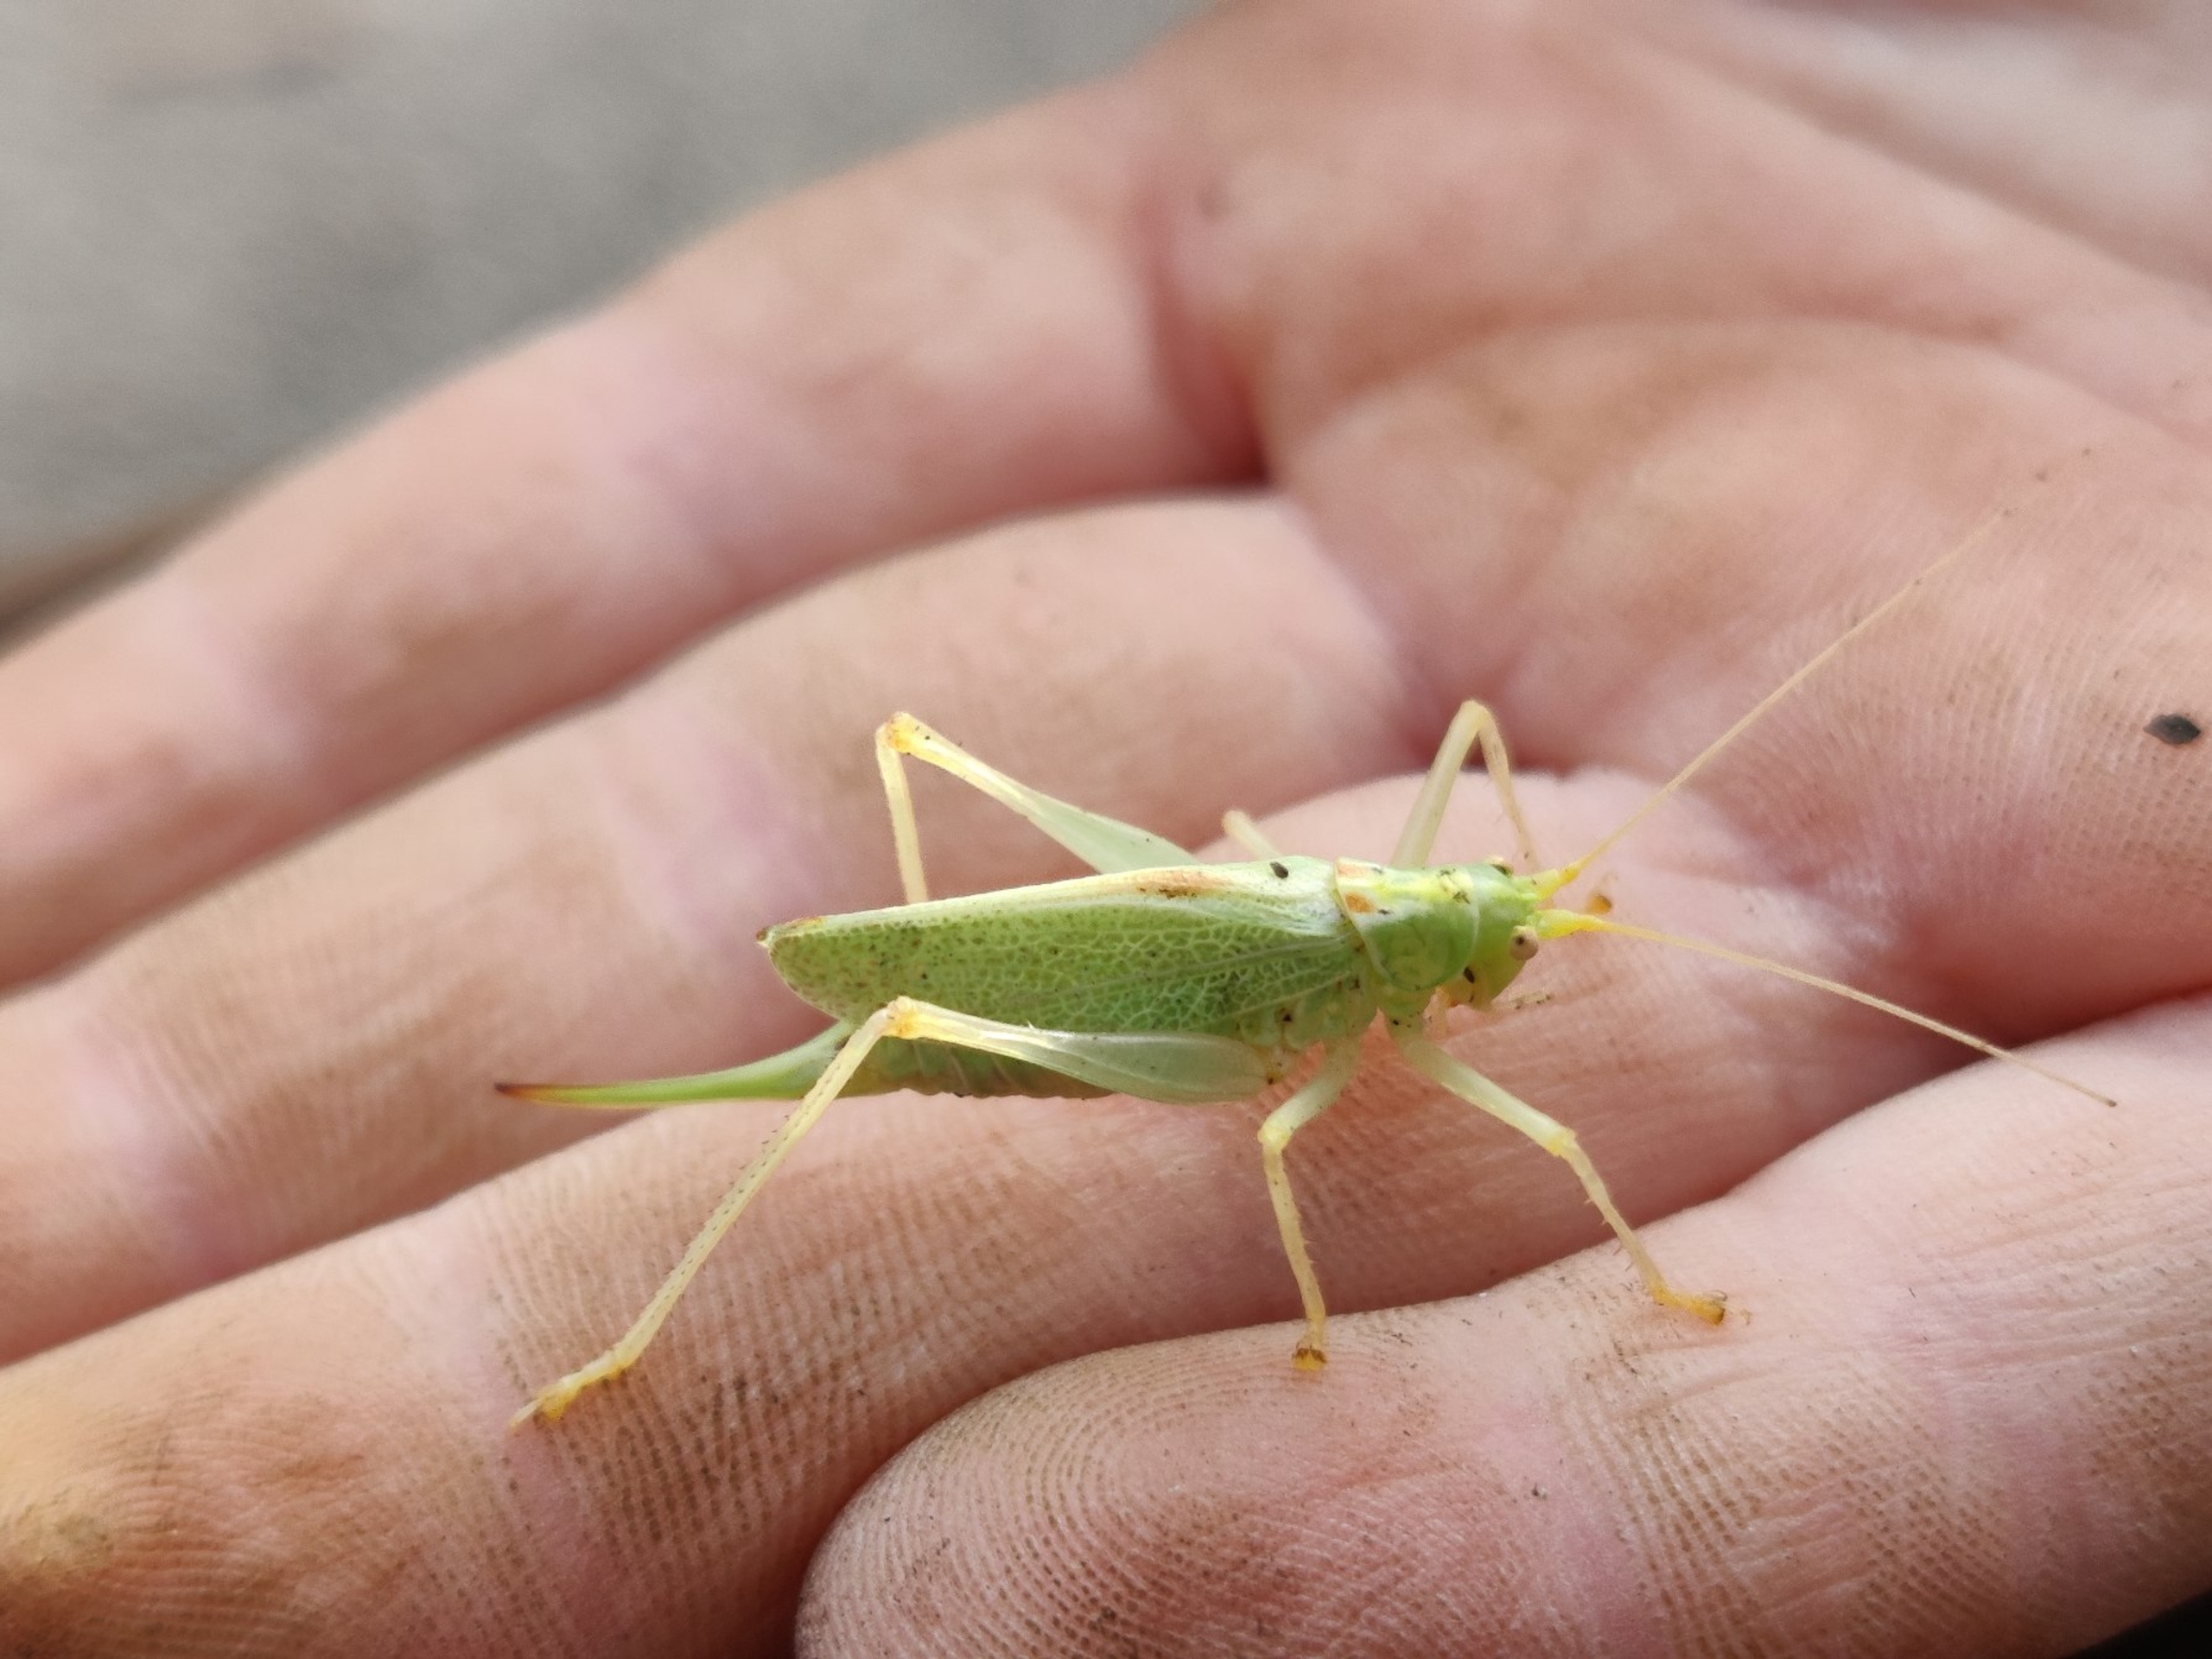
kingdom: Animalia
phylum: Arthropoda
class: Insecta
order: Orthoptera
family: Tettigoniidae
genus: Meconema
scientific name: Meconema thalassinum
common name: Egegræshoppe
